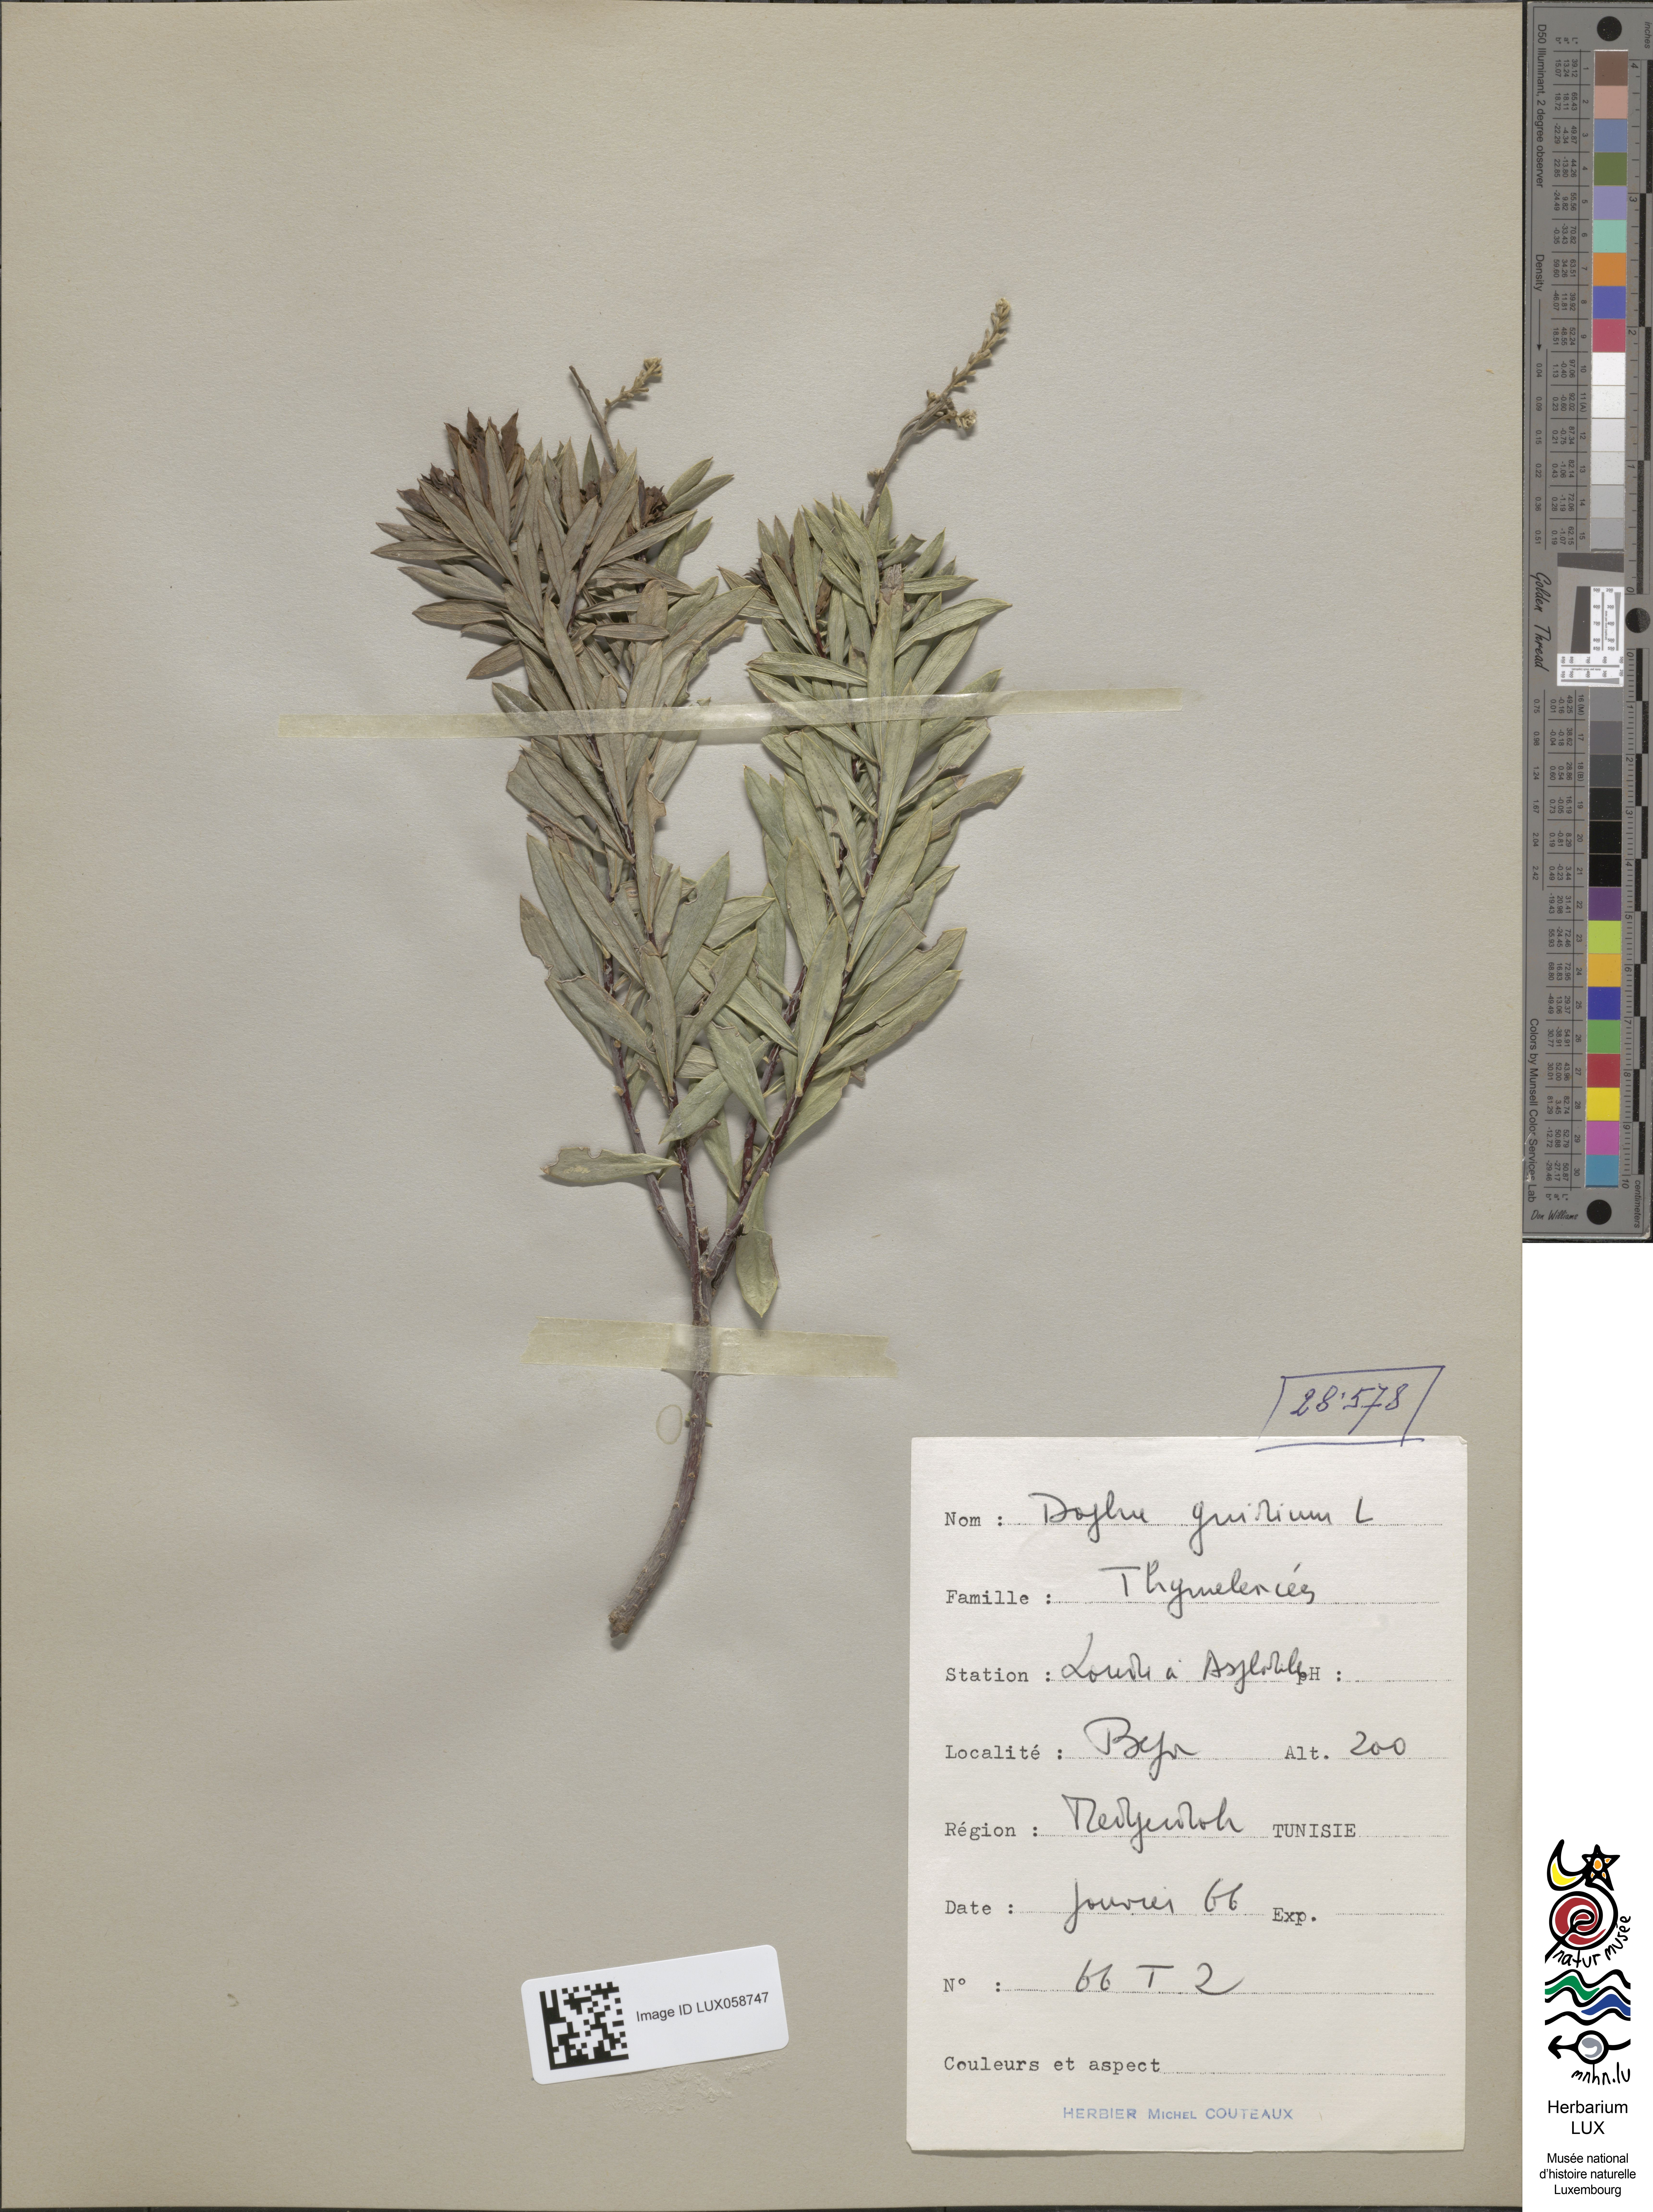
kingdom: Plantae
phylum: Tracheophyta
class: Magnoliopsida
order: Malvales
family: Thymelaeaceae
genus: Daphne
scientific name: Daphne gnidium
